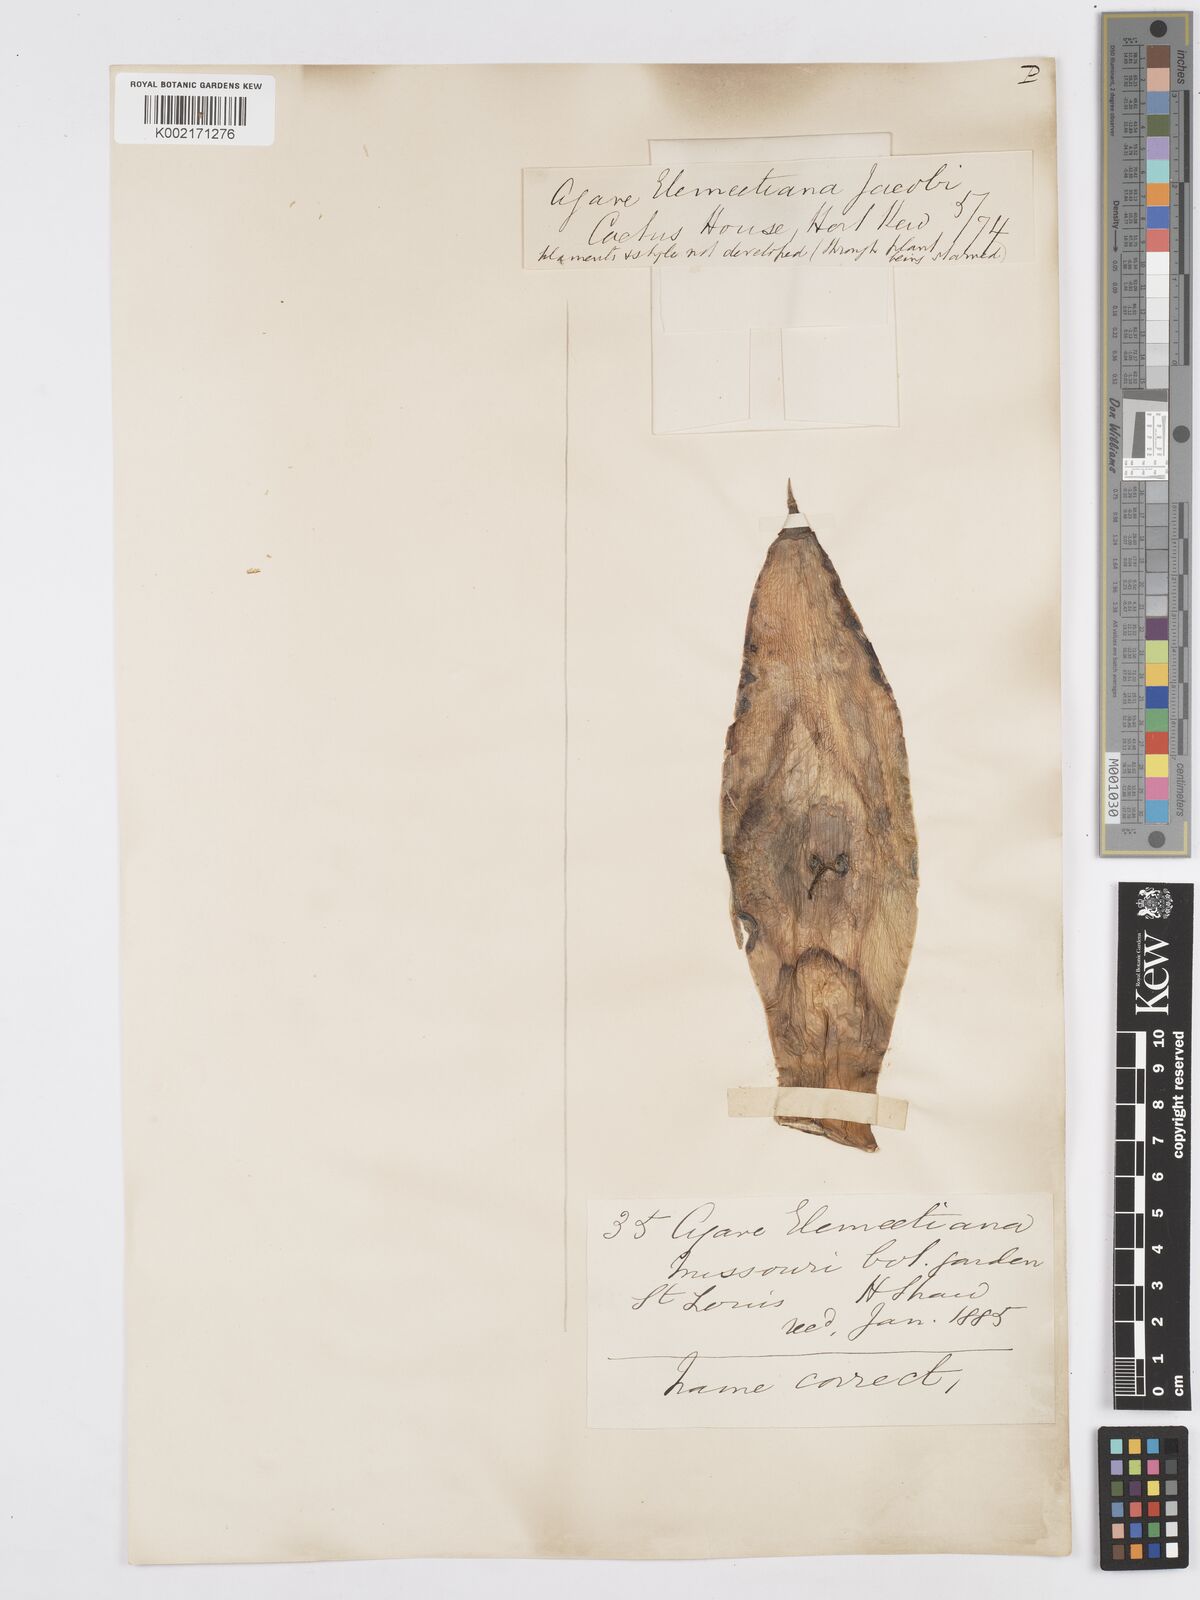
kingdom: Plantae
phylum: Tracheophyta
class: Liliopsida
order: Asparagales
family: Asparagaceae
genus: Agave
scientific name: Agave ellemeetiana
